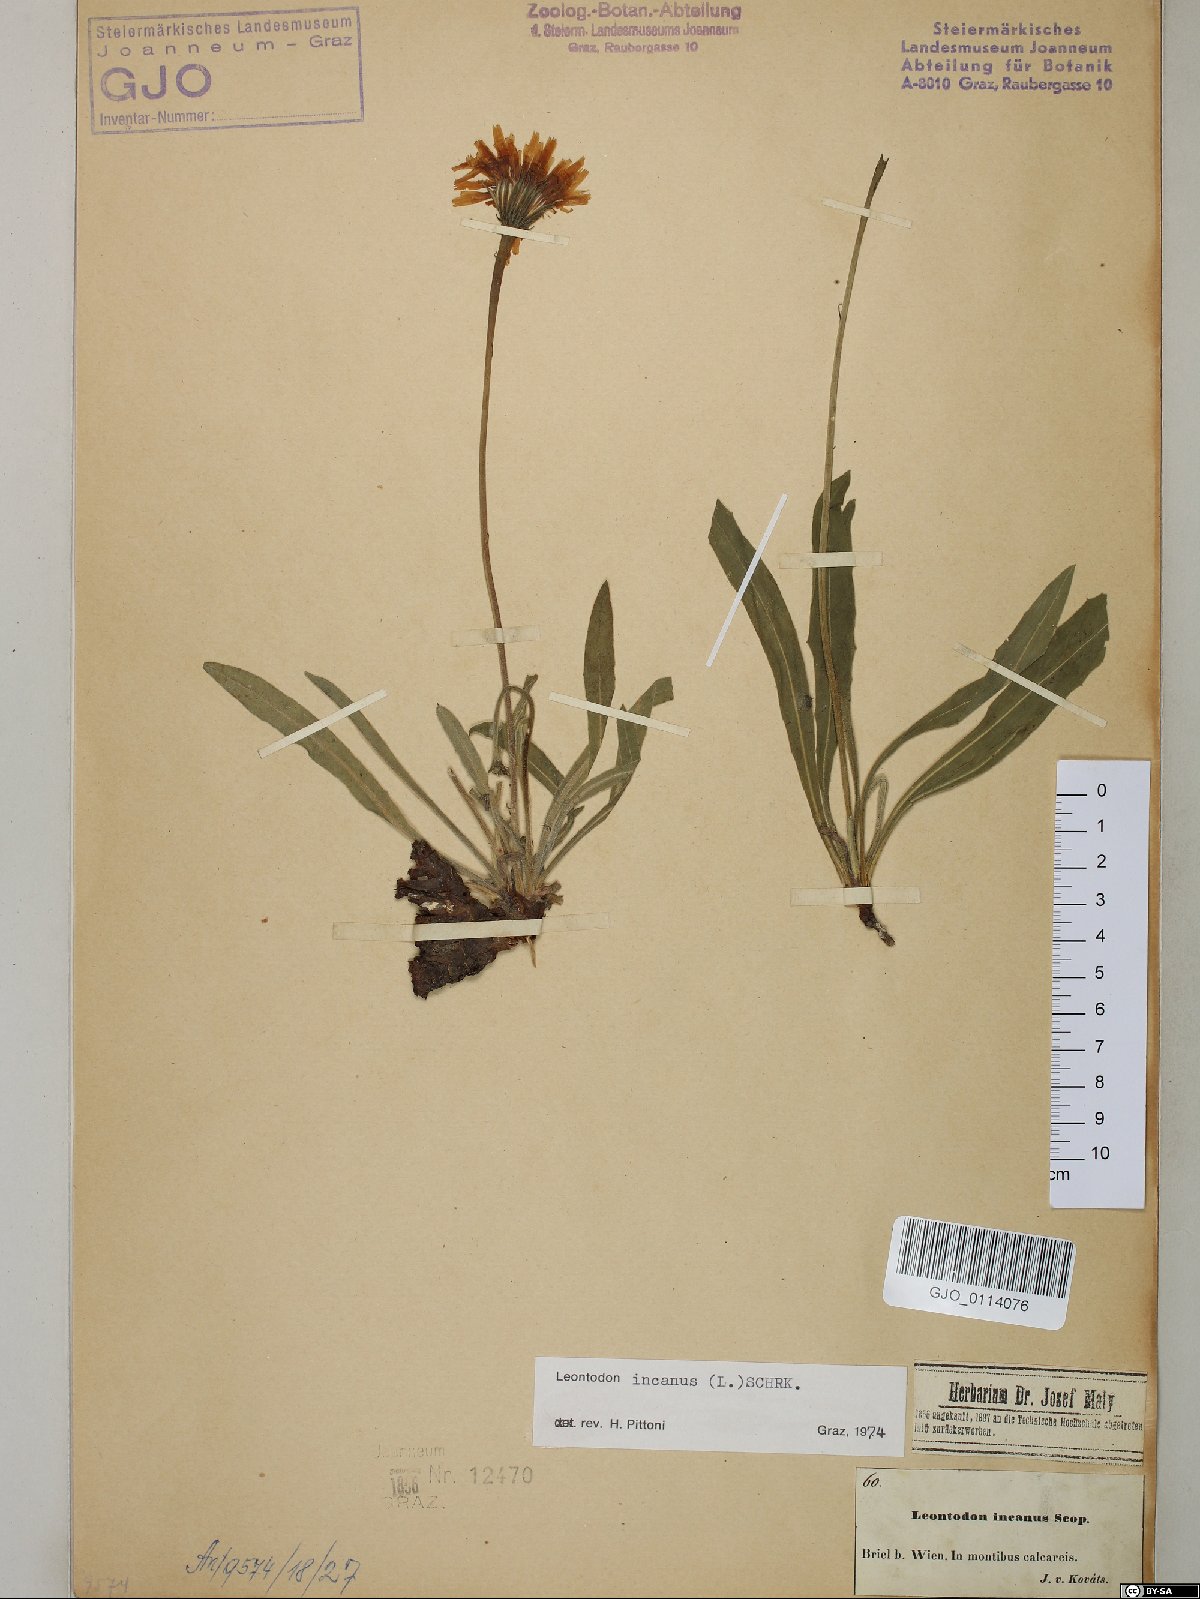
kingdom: Plantae
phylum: Tracheophyta
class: Magnoliopsida
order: Asterales
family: Asteraceae
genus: Leontodon
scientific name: Leontodon incanus
